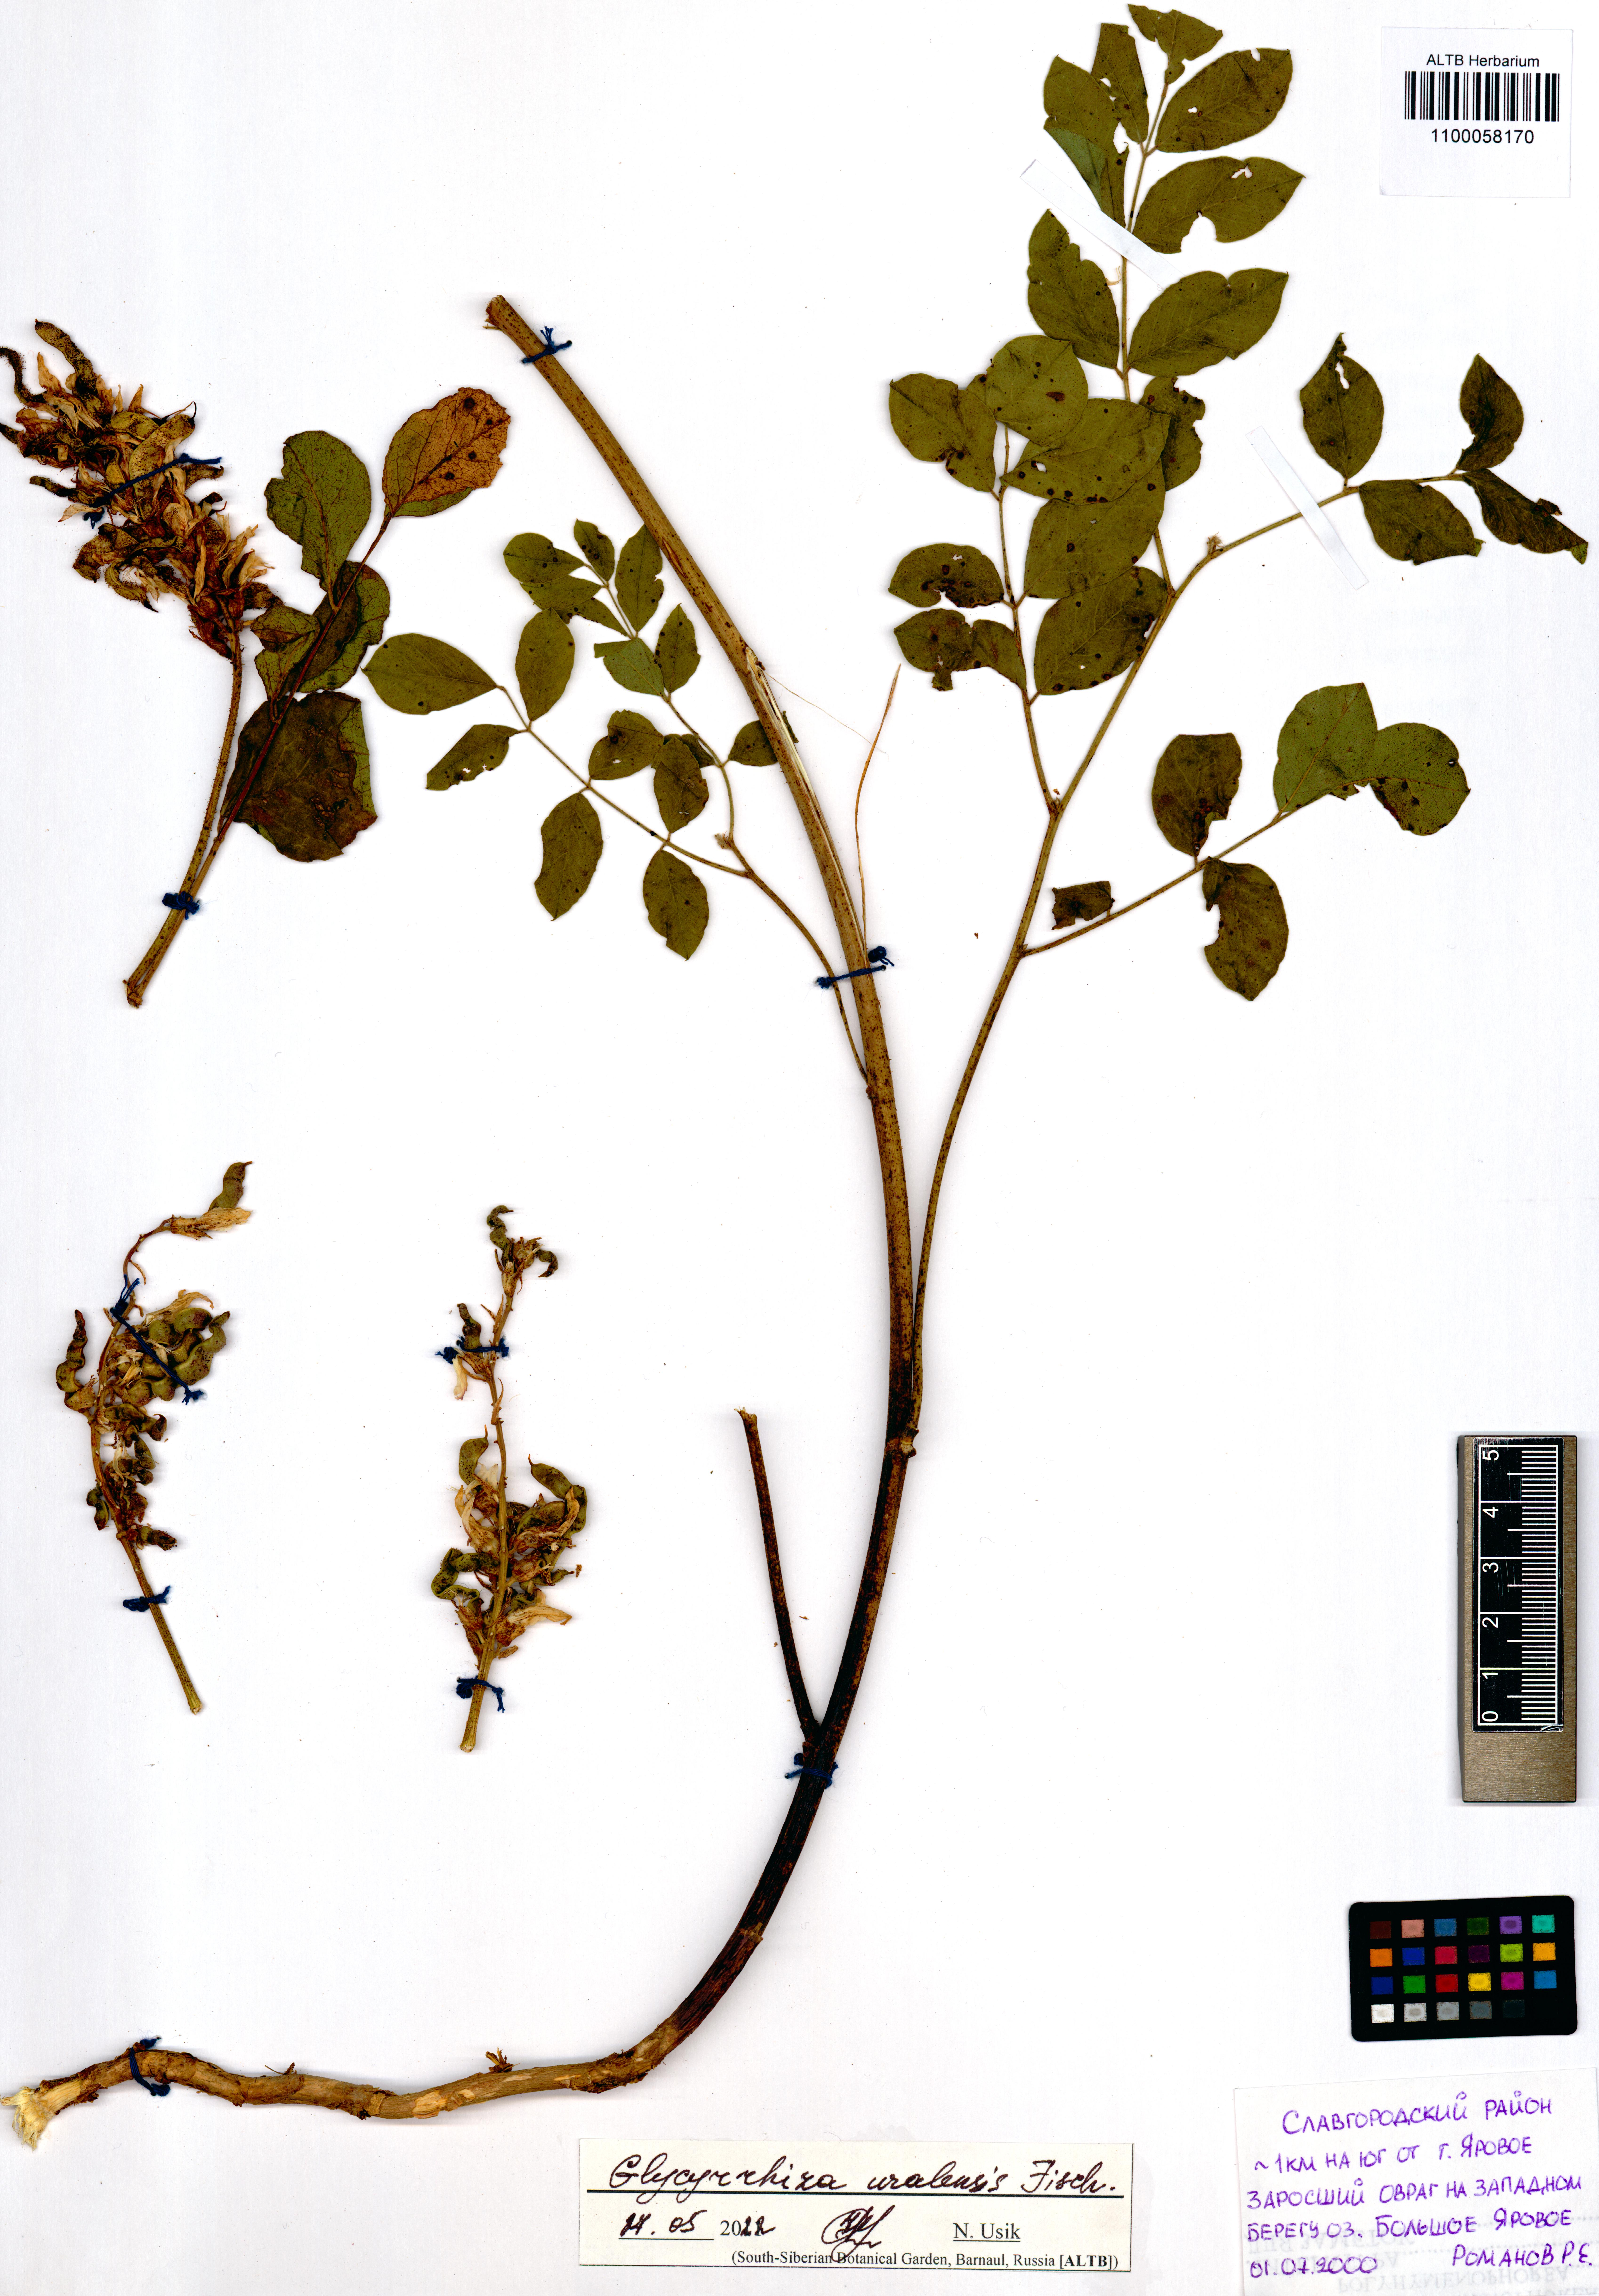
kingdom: Plantae
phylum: Tracheophyta
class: Magnoliopsida
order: Fabales
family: Fabaceae
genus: Glycyrrhiza
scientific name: Glycyrrhiza uralensis
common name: Chinese licorice
